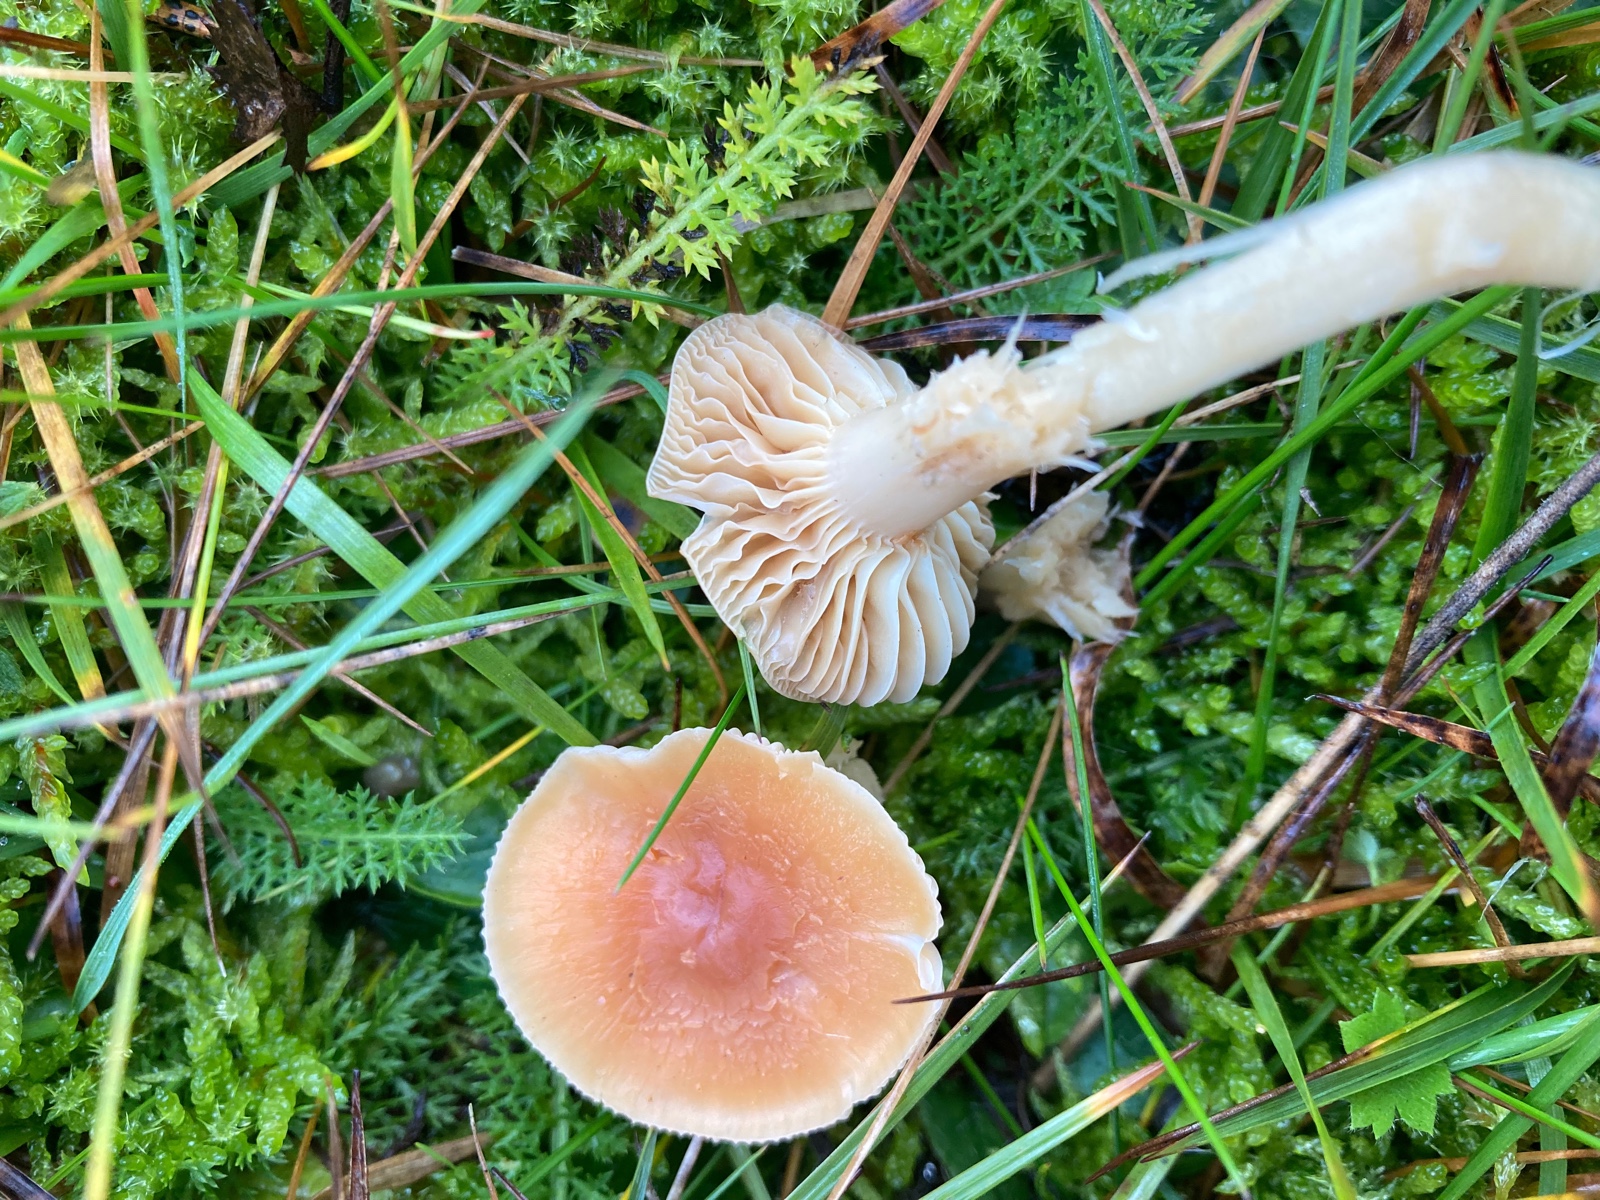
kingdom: Fungi
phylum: Basidiomycota
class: Agaricomycetes
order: Agaricales
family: Hygrophoraceae
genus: Cuphophyllus
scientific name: Cuphophyllus pratensis
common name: eng-vokshat
